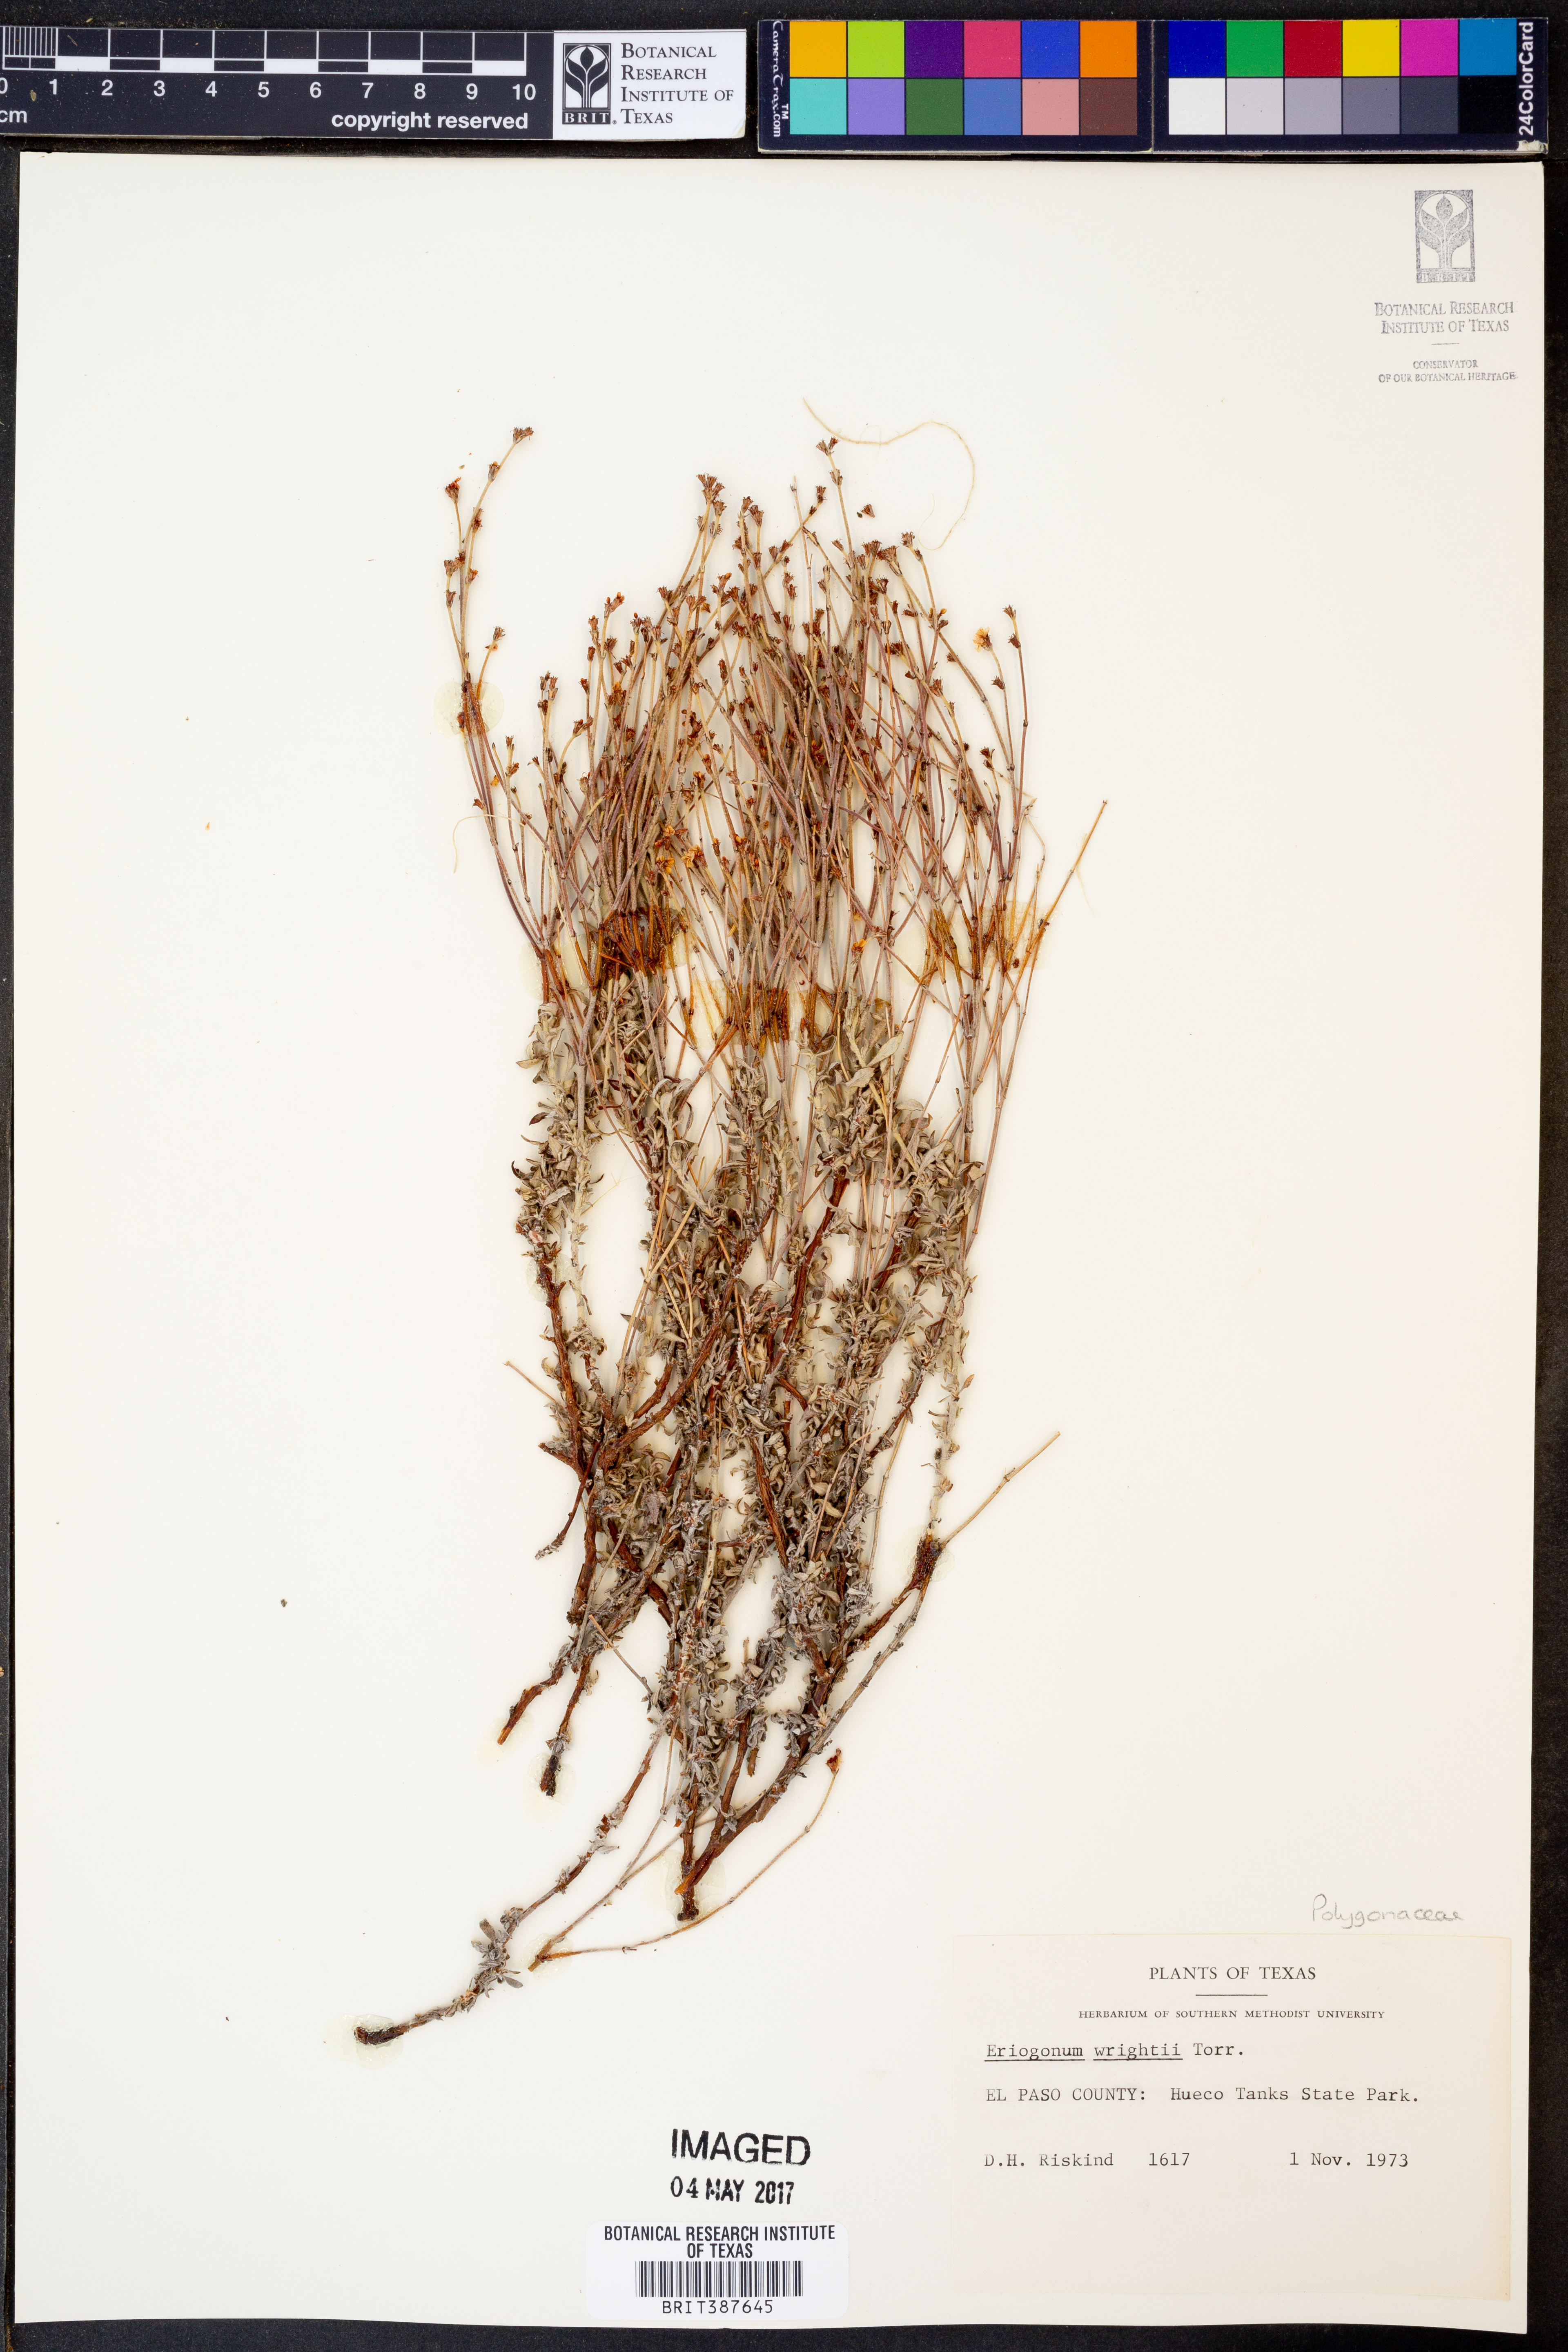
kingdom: Plantae
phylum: Tracheophyta
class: Magnoliopsida
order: Caryophyllales
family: Polygonaceae
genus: Eriogonum
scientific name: Eriogonum wrightii
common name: Bastard-sage
